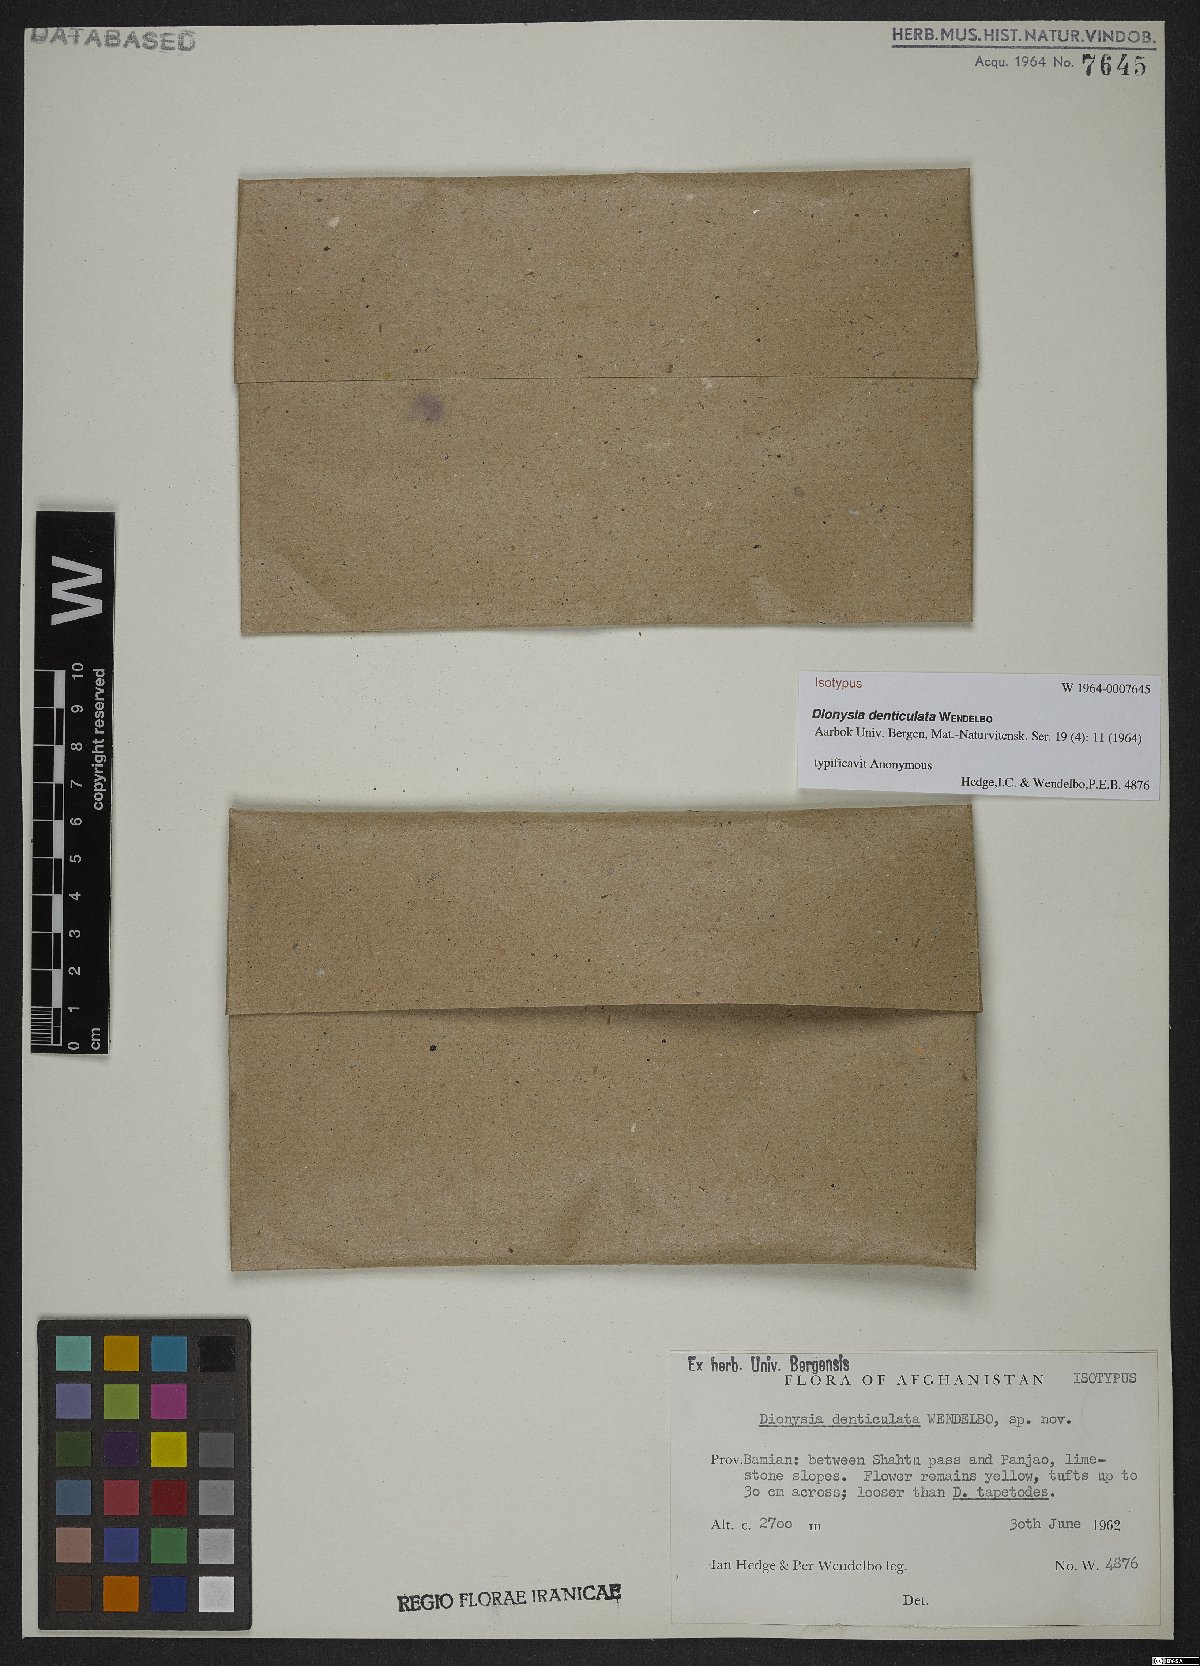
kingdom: Plantae
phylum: Tracheophyta
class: Magnoliopsida
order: Ericales
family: Primulaceae
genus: Dionysia
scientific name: Dionysia denticulata
